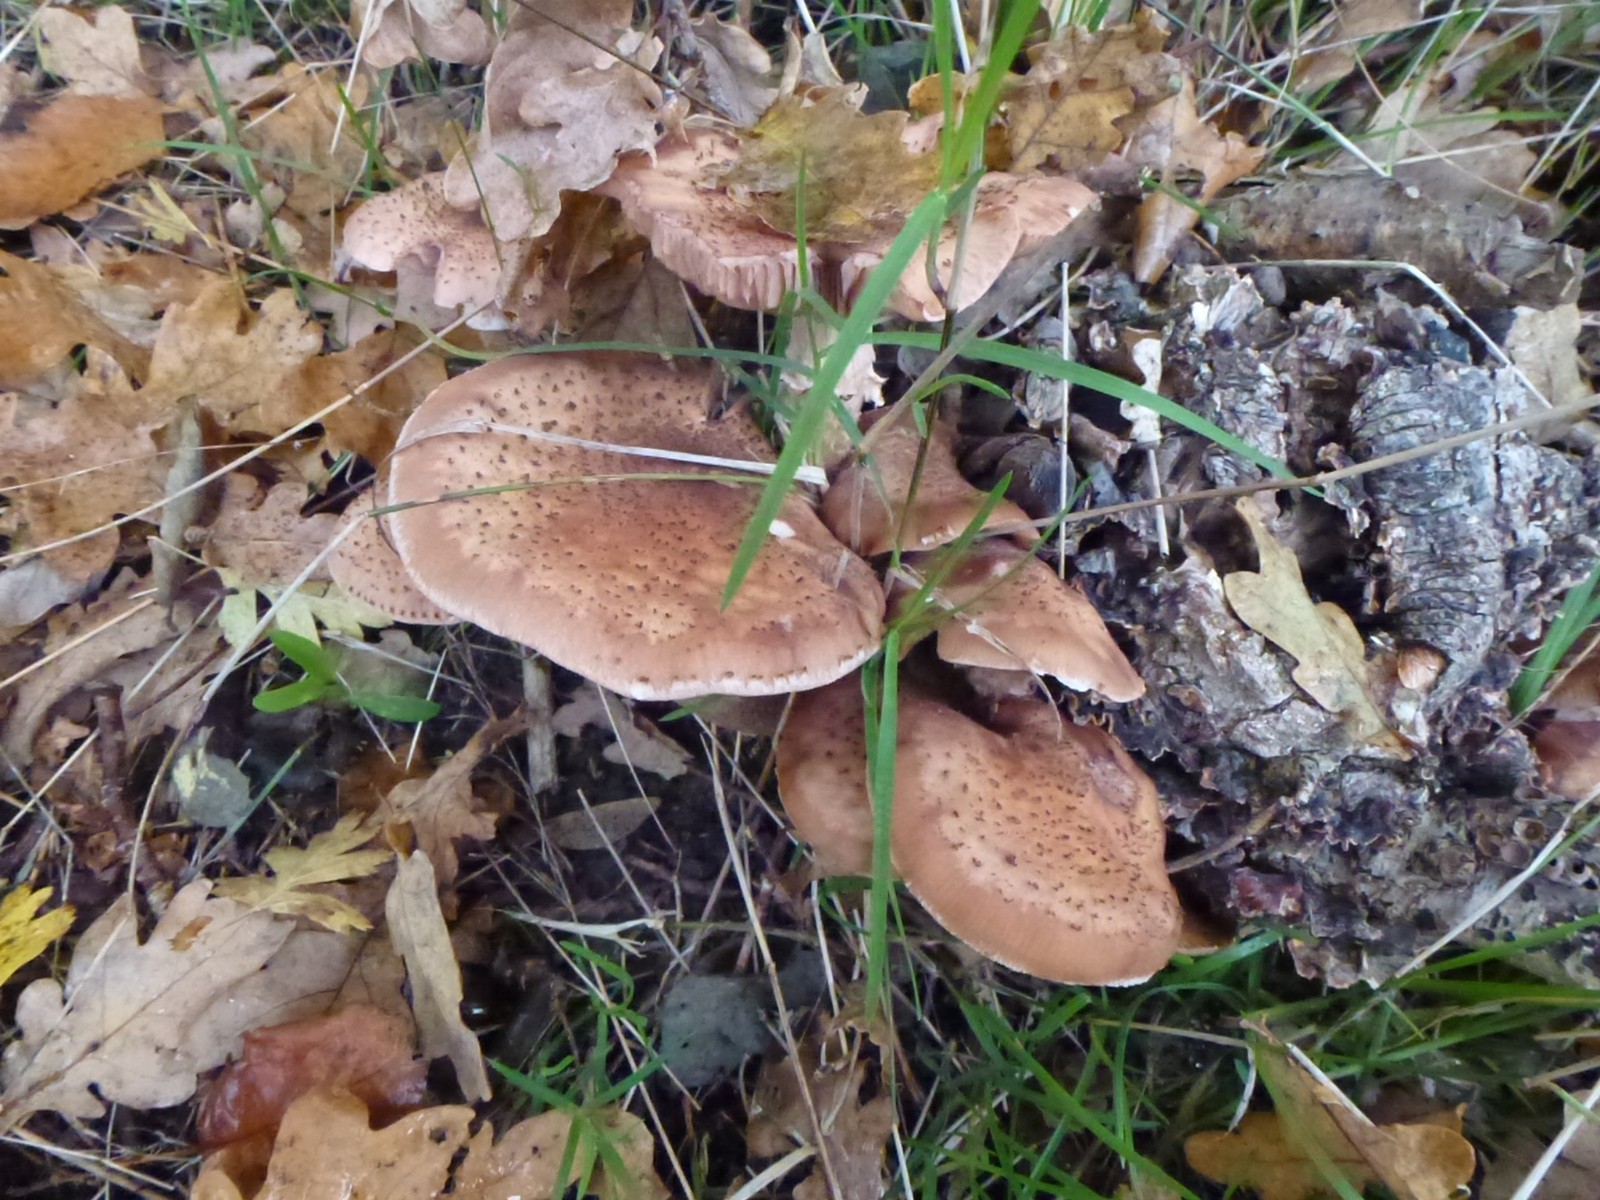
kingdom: Fungi
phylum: Basidiomycota
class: Agaricomycetes
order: Agaricales
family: Physalacriaceae
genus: Armillaria
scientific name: Armillaria
